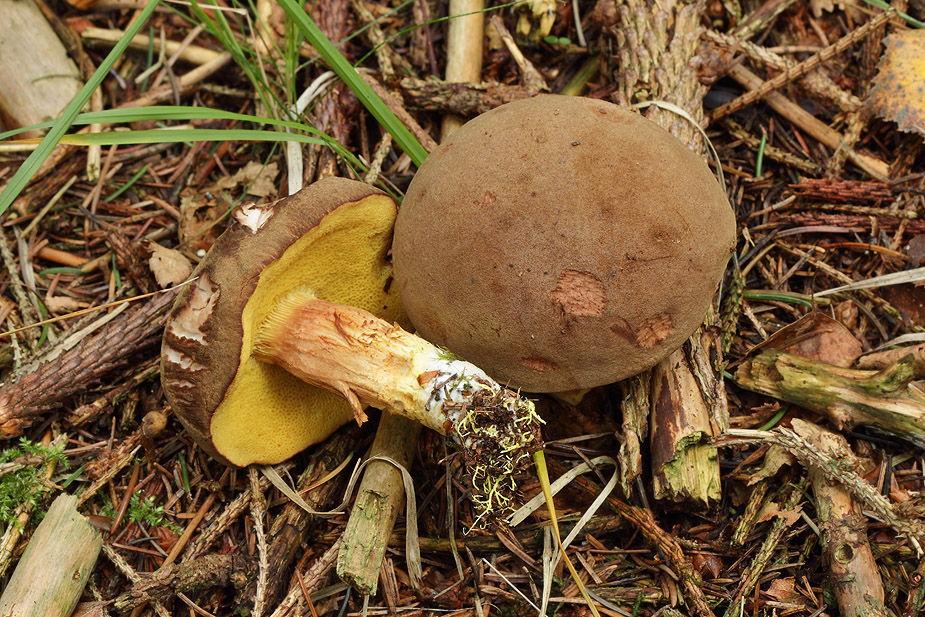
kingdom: Fungi
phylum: Basidiomycota
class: Agaricomycetes
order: Boletales
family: Boletaceae
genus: Xerocomus
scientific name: Xerocomus ferrugineus
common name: vaskeskinds-rørhat
